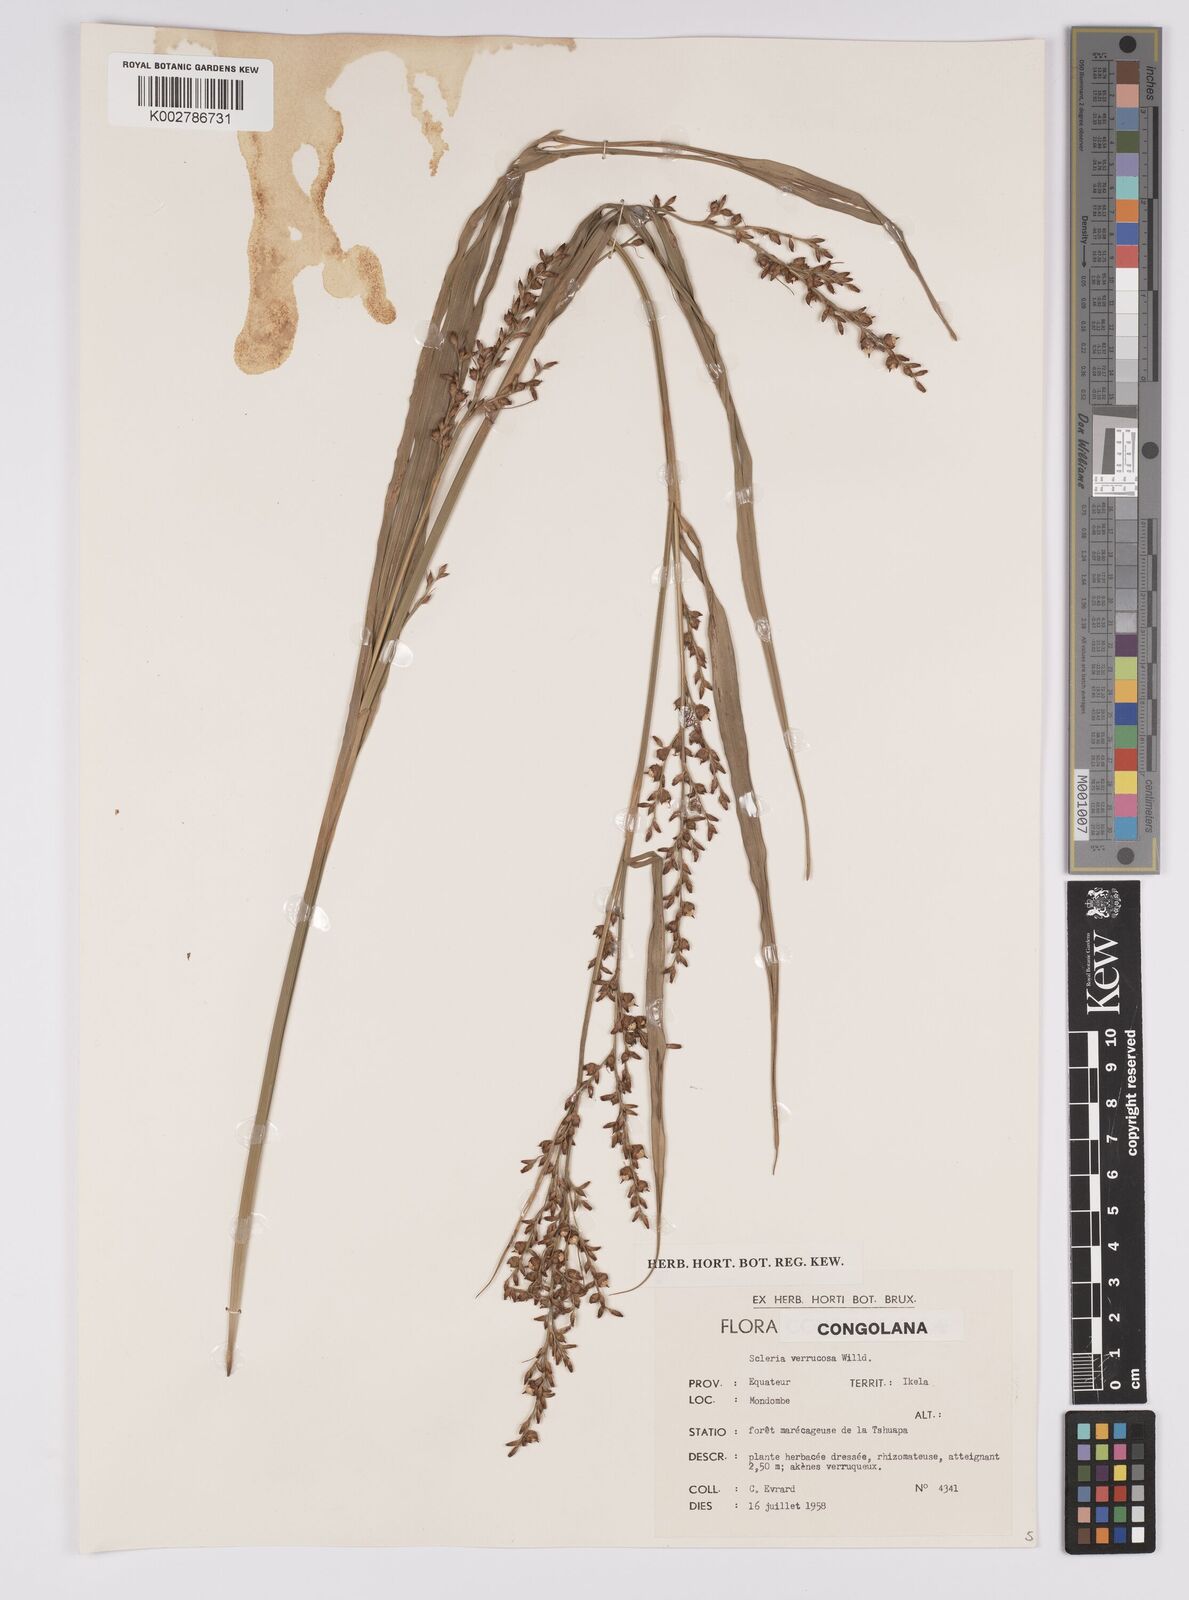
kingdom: Plantae
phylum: Tracheophyta
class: Liliopsida
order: Poales
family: Cyperaceae
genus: Scleria
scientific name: Scleria verrucosa
